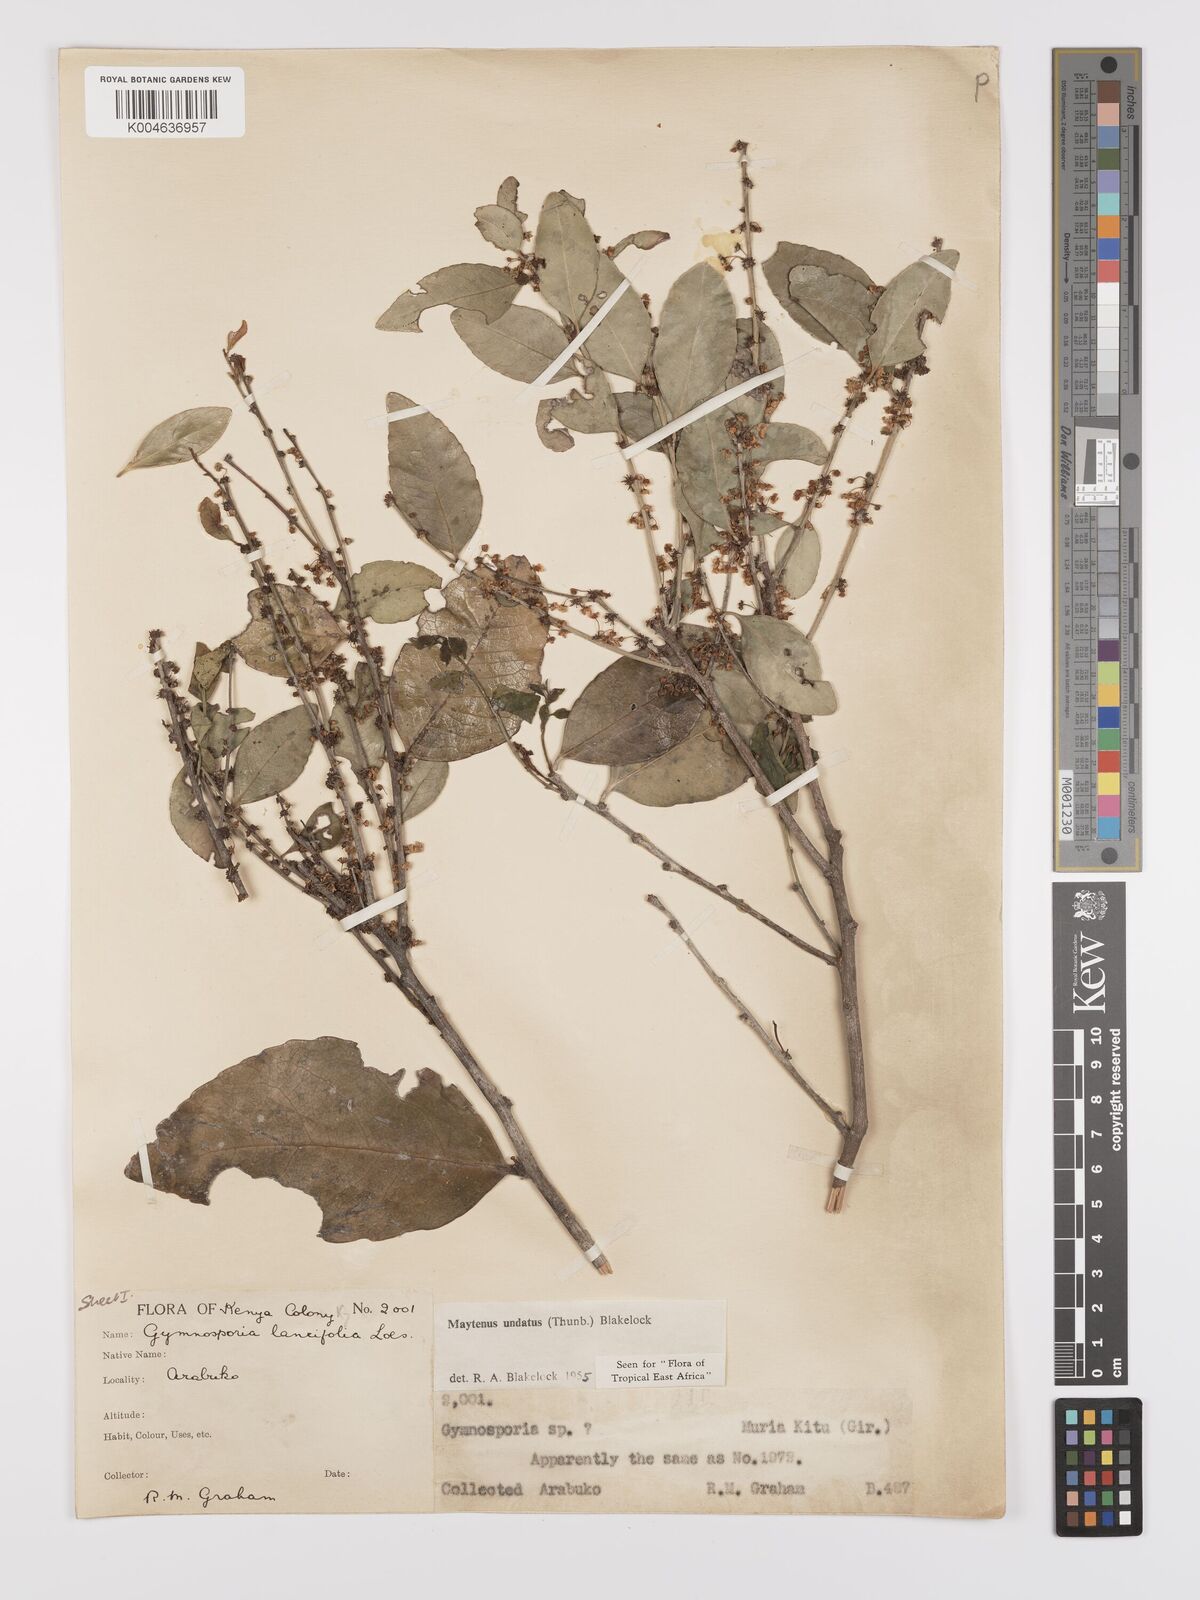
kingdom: Plantae
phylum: Tracheophyta
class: Magnoliopsida
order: Celastrales
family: Celastraceae
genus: Gymnosporia
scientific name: Gymnosporia undata
